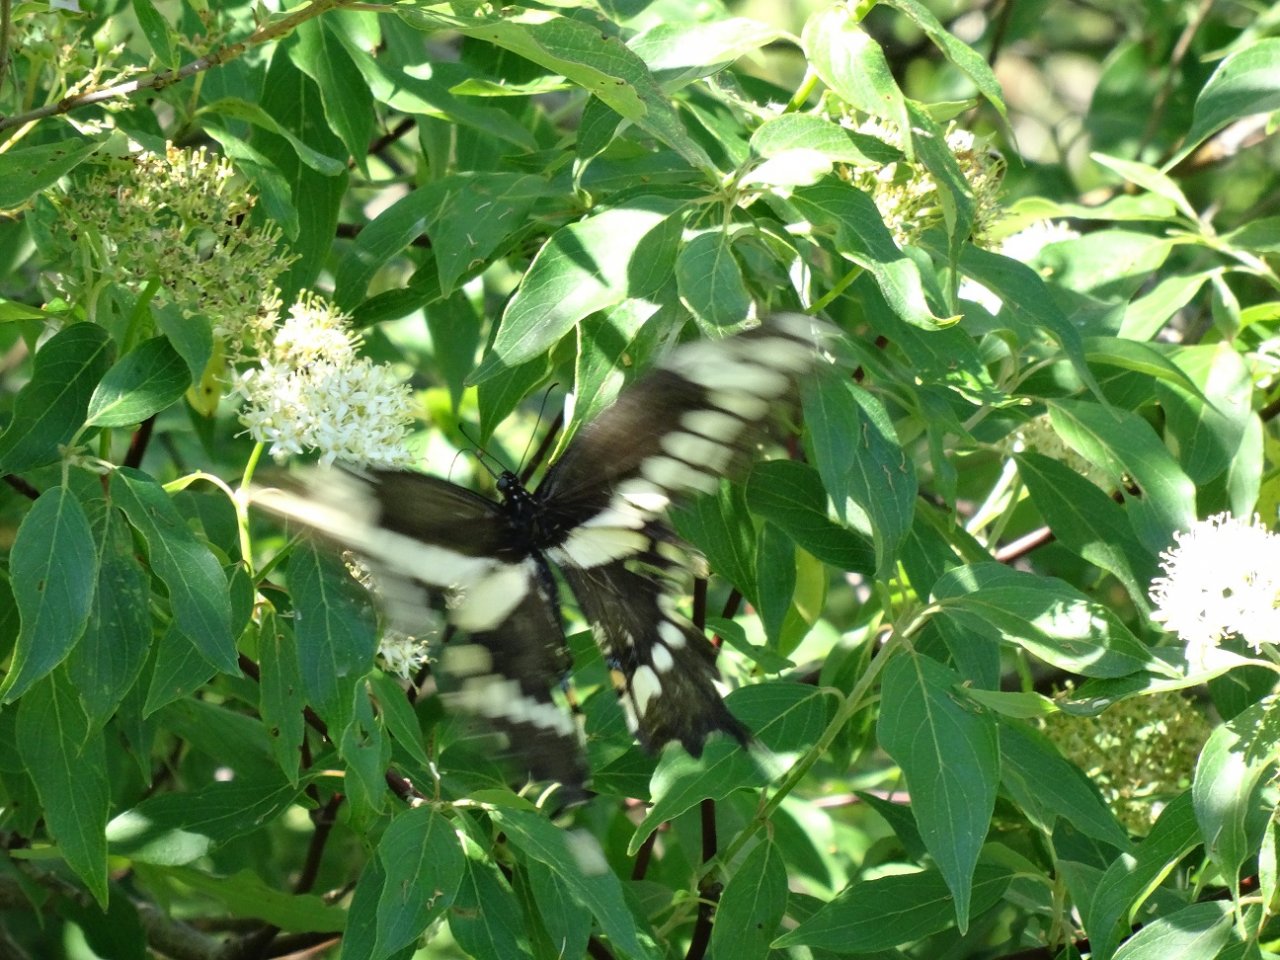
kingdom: Animalia
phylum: Arthropoda
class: Insecta
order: Lepidoptera
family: Papilionidae
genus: Papilio
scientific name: Papilio cresphontes
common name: Eastern Giant Swallowtail
